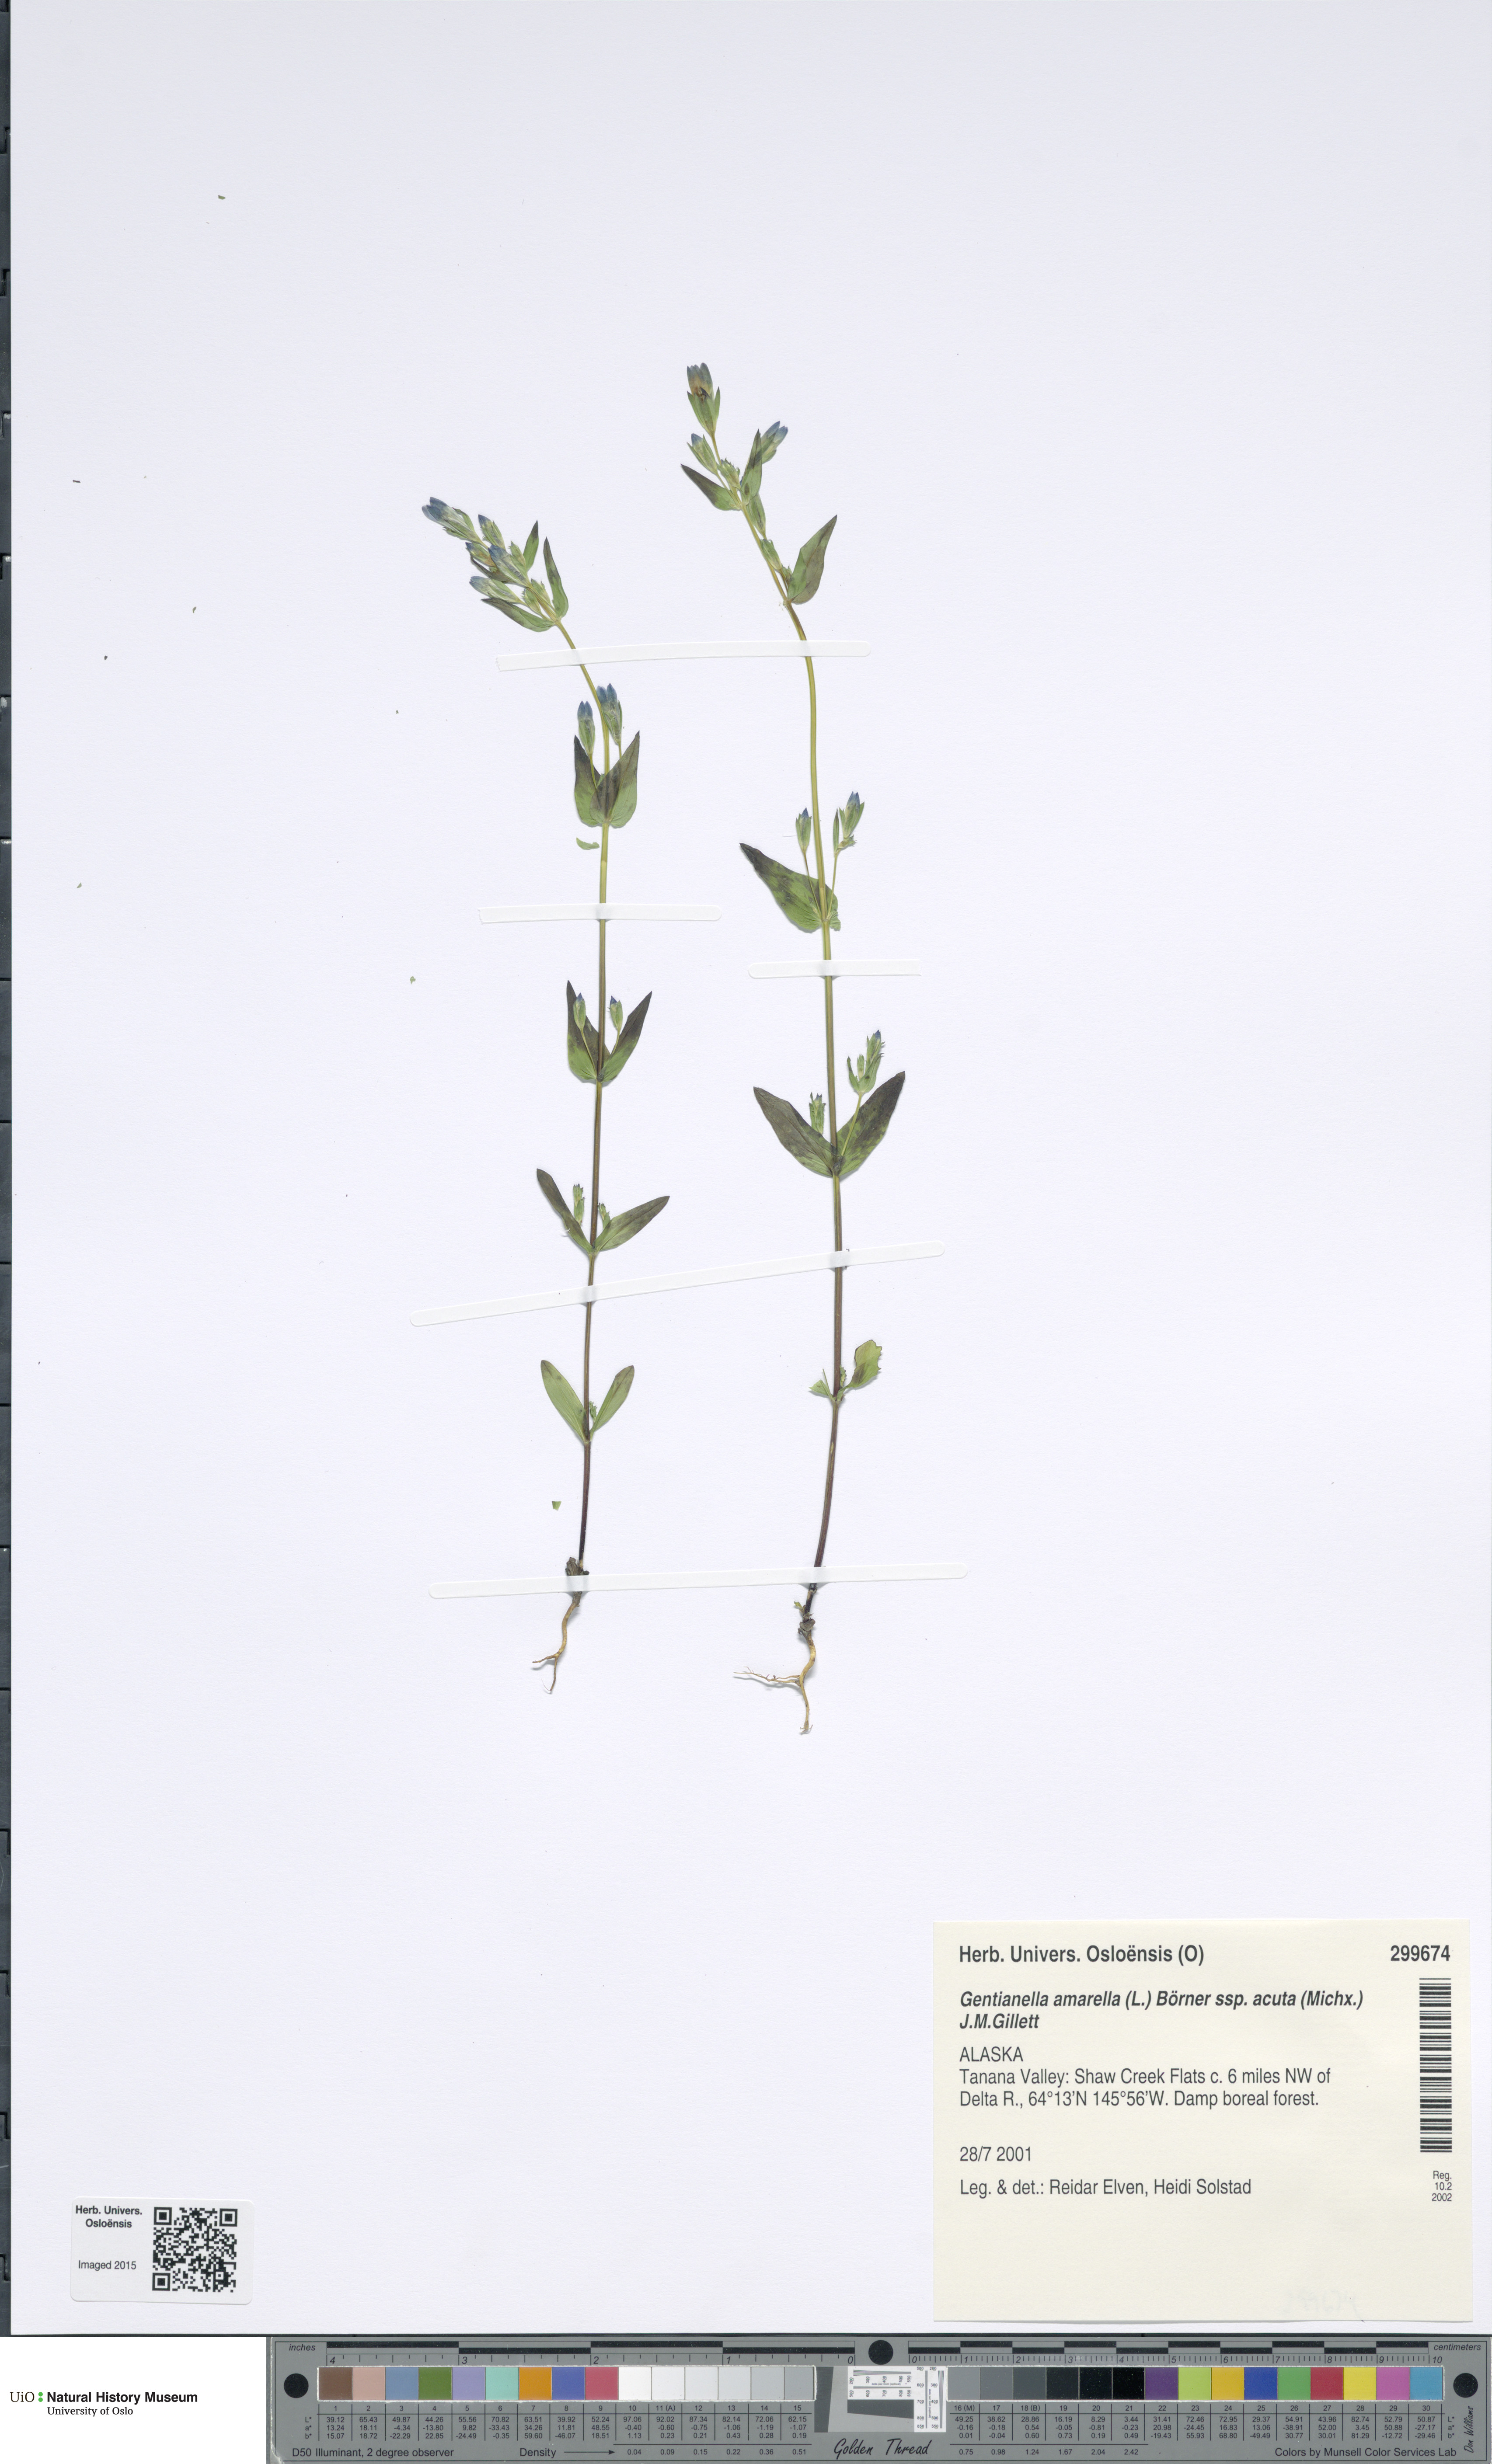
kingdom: Plantae
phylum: Tracheophyta
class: Magnoliopsida
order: Gentianales
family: Gentianaceae
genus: Gentianella
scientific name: Gentianella amarella
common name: Autumn gentian
